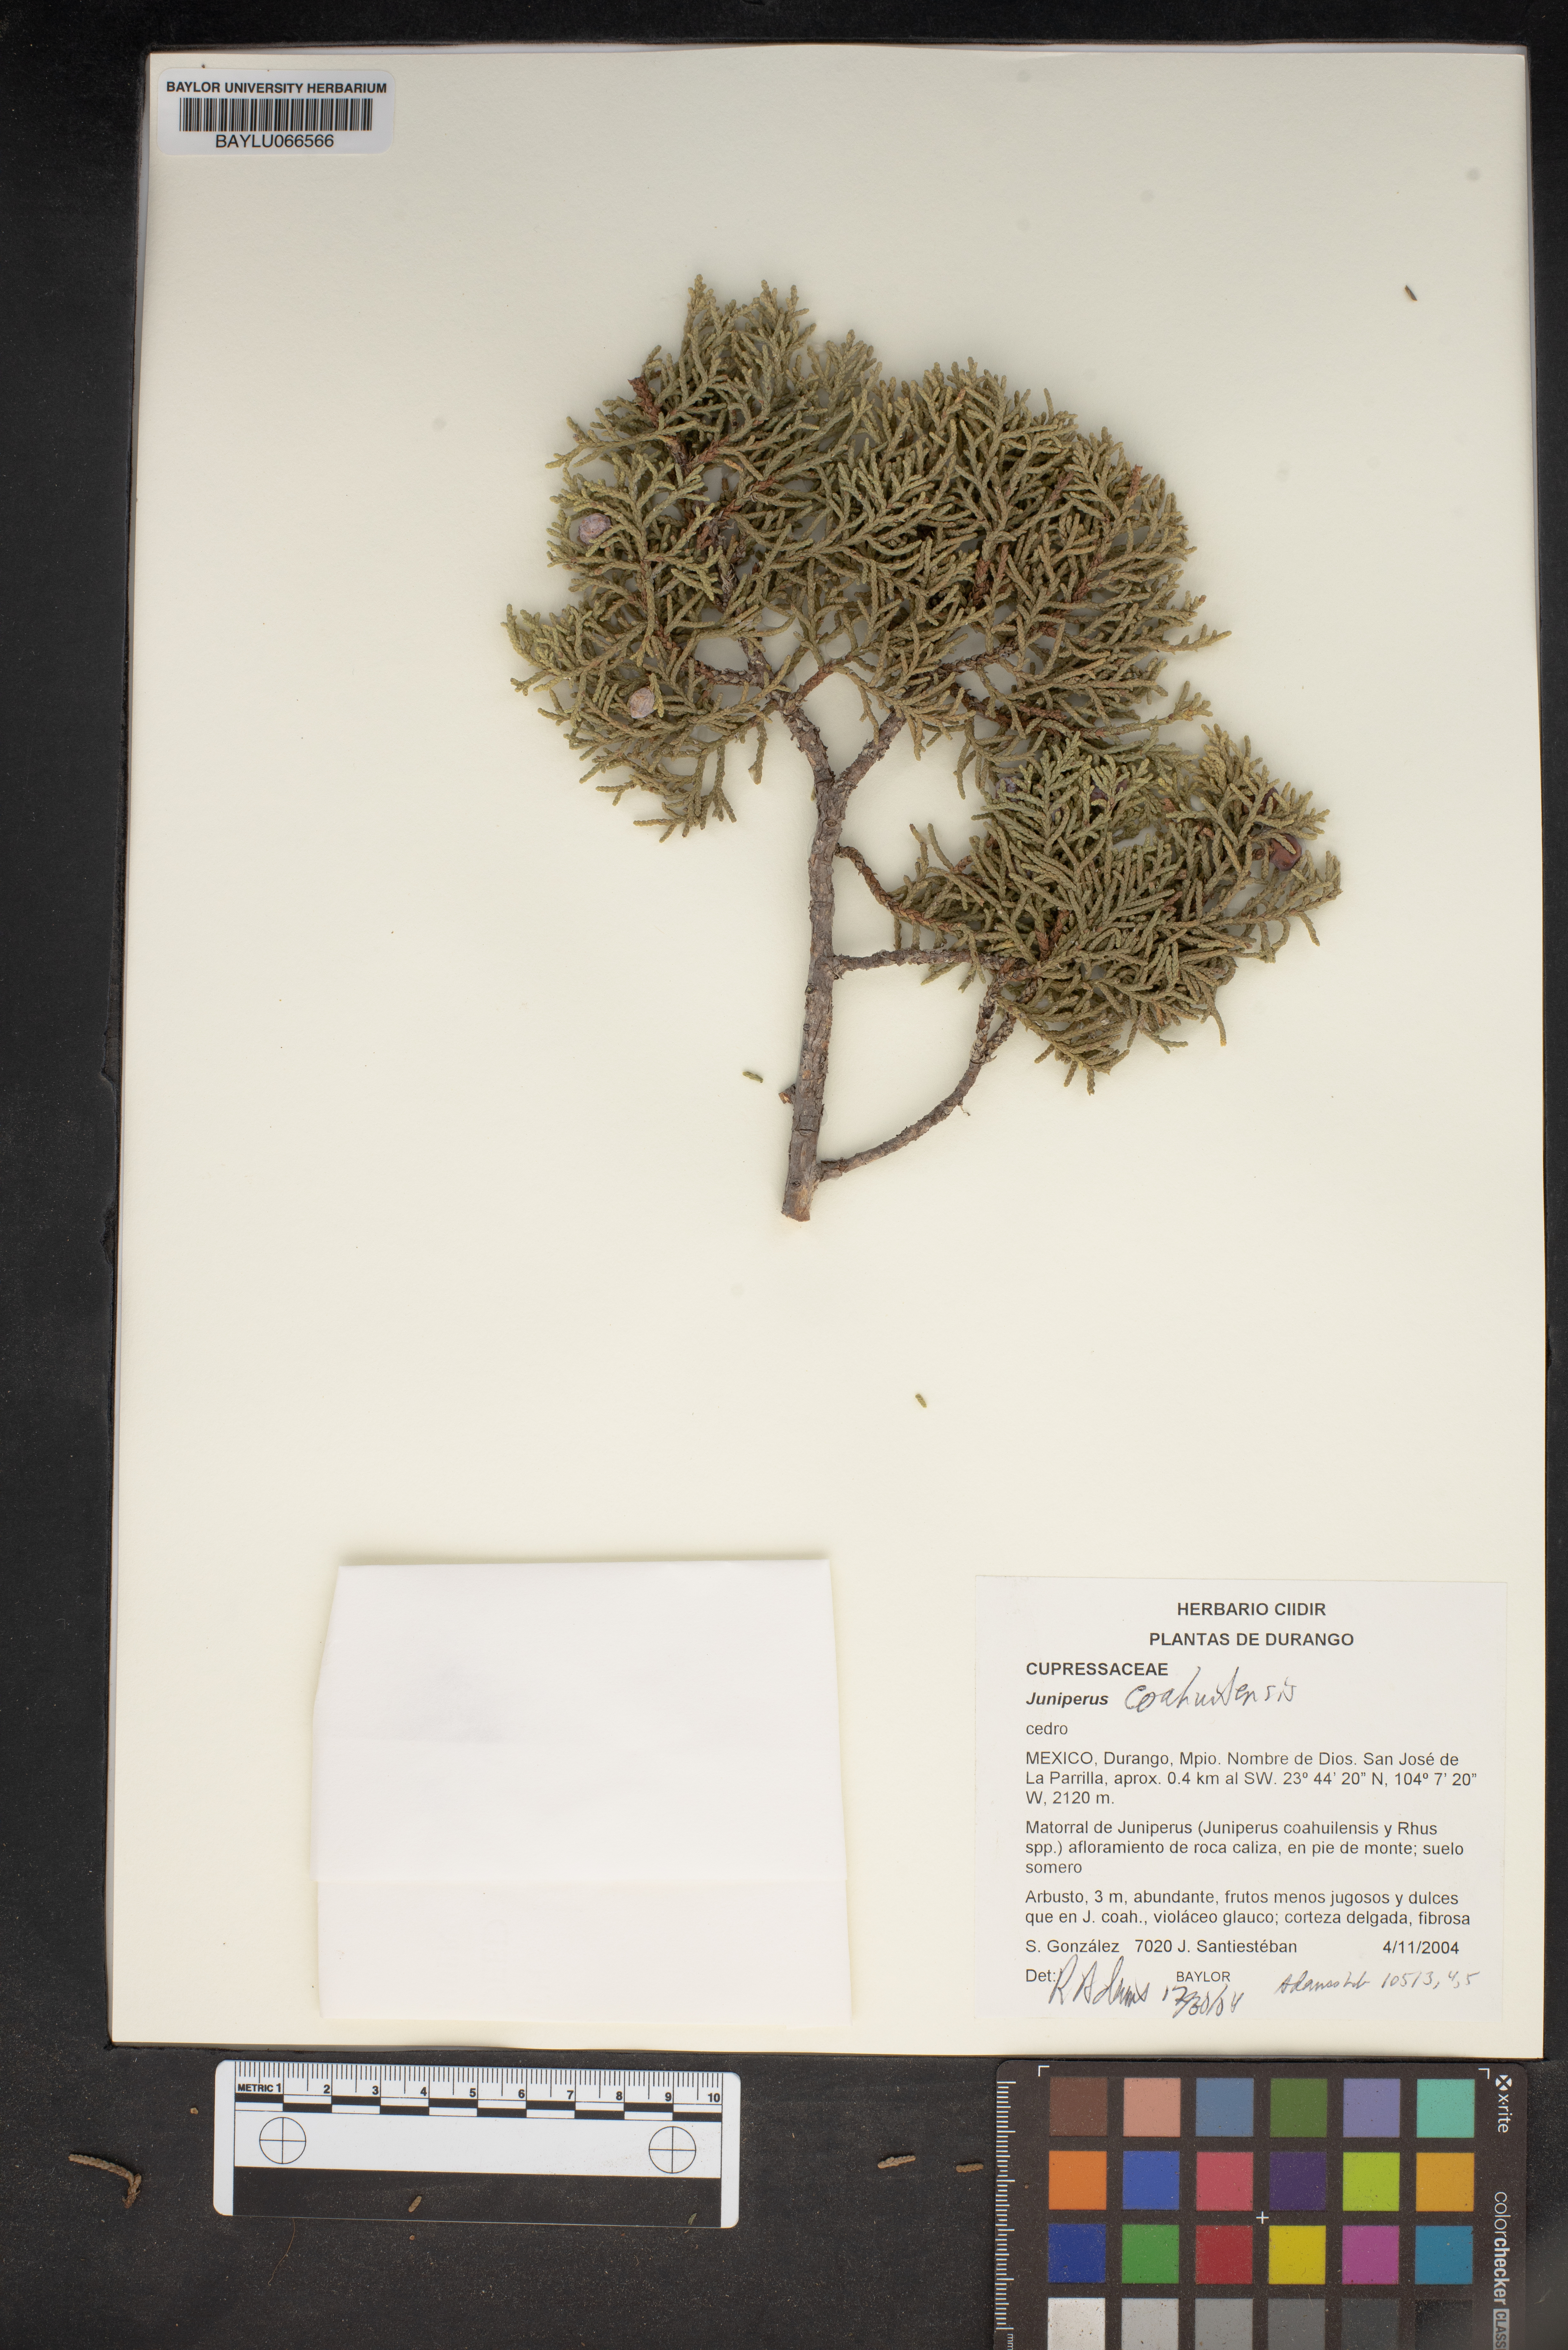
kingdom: Plantae
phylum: Tracheophyta
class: Pinopsida
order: Pinales
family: Cupressaceae
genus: Juniperus
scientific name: Juniperus coahuilensis
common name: Roseberry
